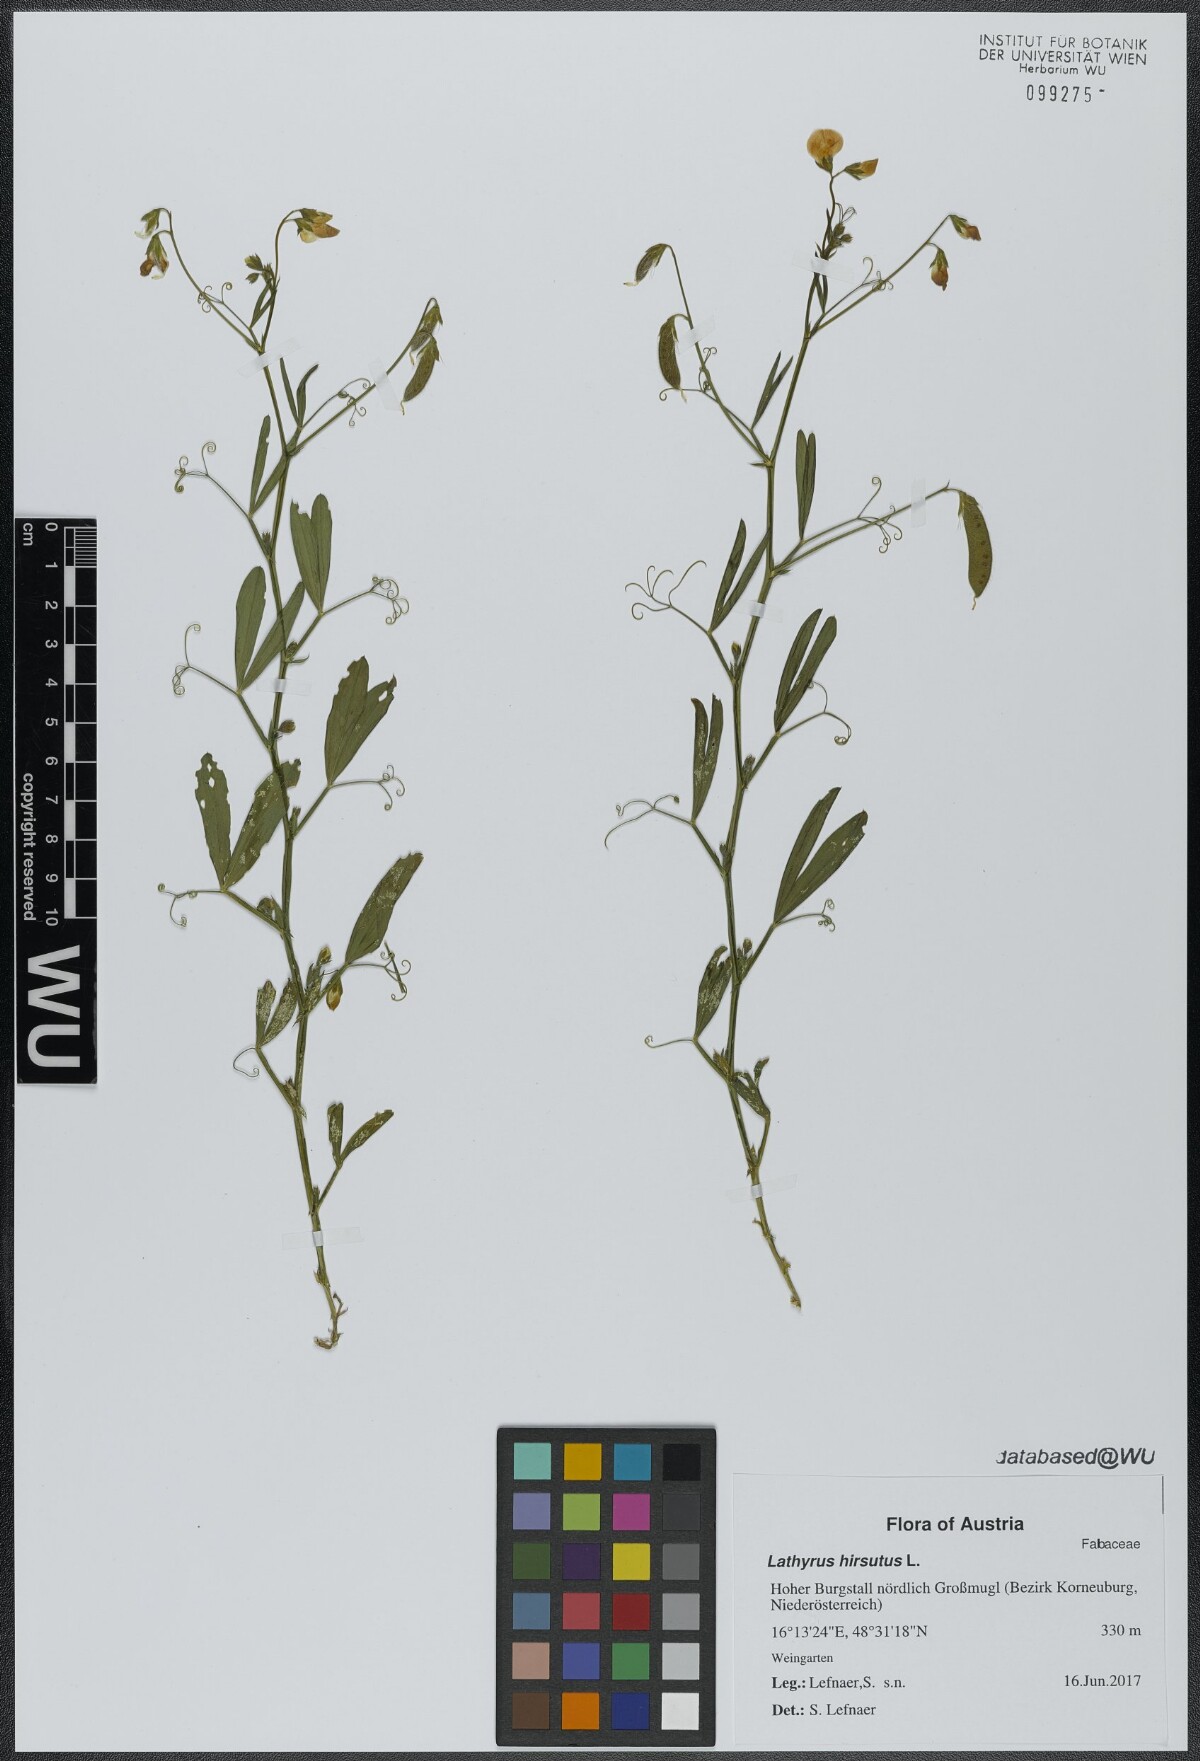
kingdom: Plantae
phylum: Tracheophyta
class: Magnoliopsida
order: Fabales
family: Fabaceae
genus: Lathyrus
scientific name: Lathyrus hirsutus
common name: Hairy vetchling
